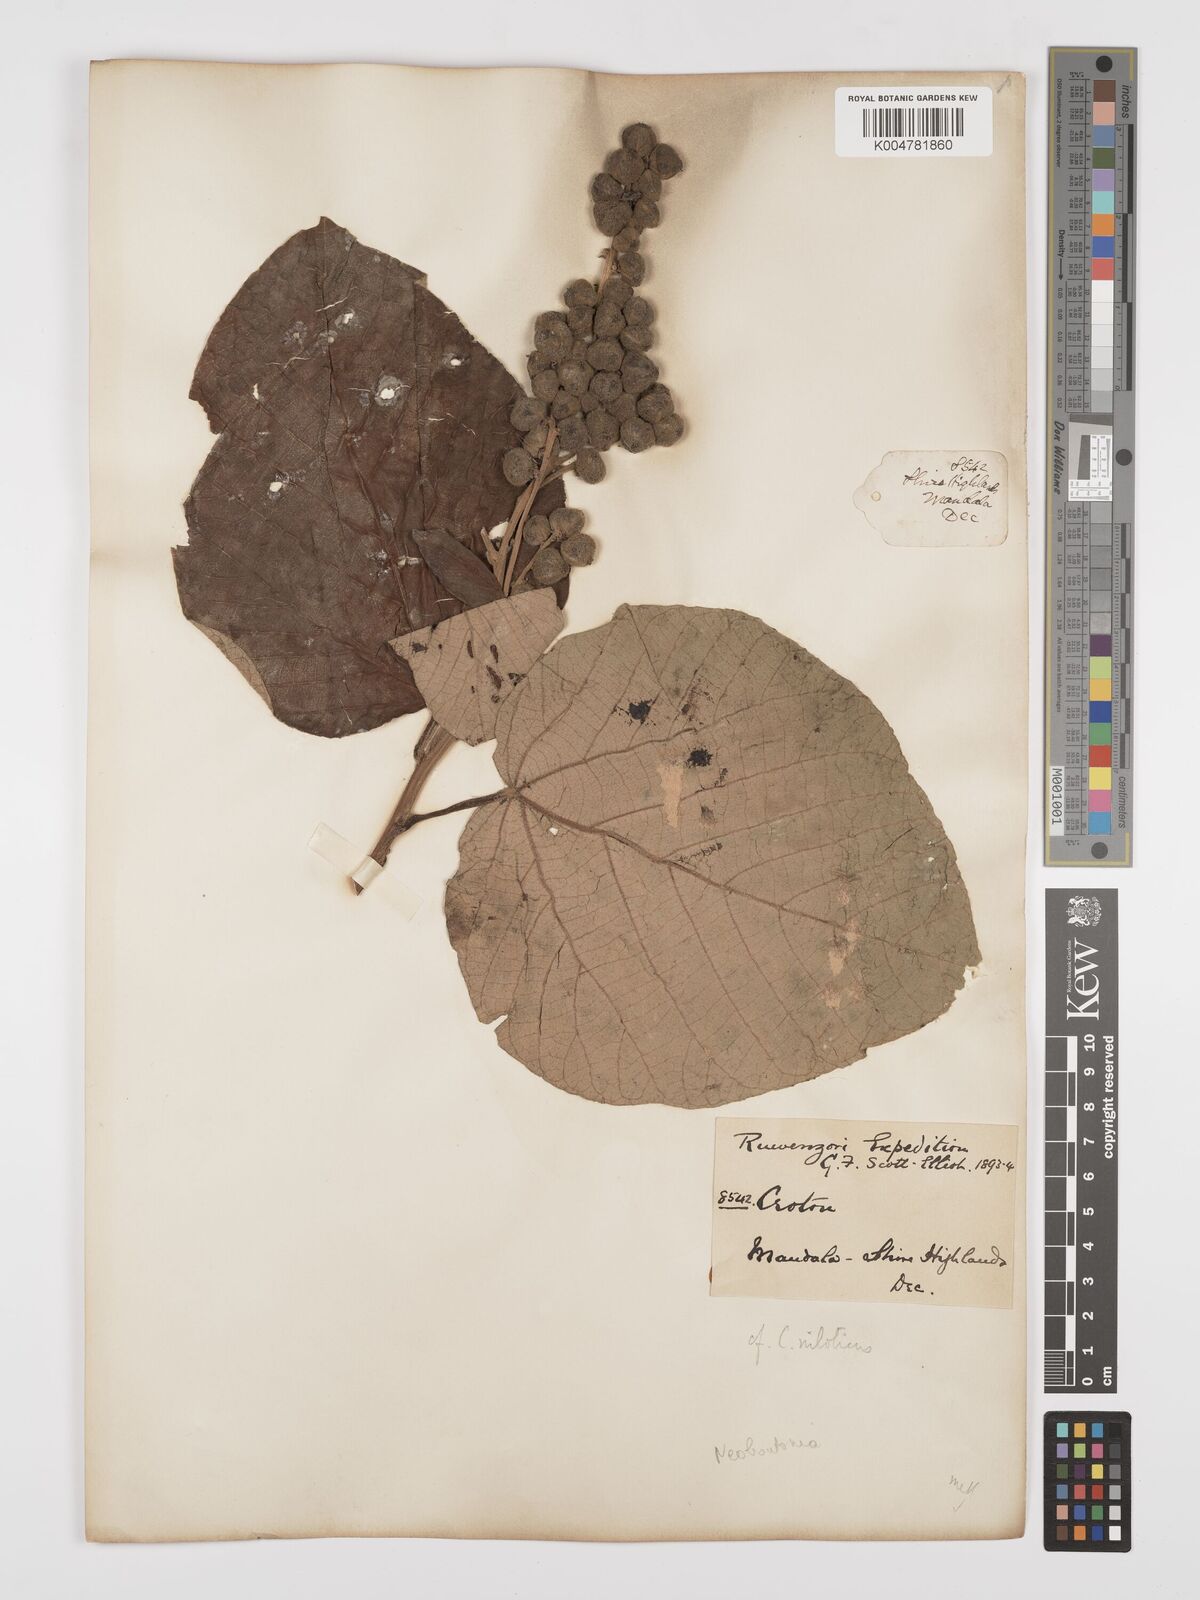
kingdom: Plantae
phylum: Tracheophyta
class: Magnoliopsida
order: Malpighiales
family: Euphorbiaceae
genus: Neoboutonia
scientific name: Neoboutonia melleri
